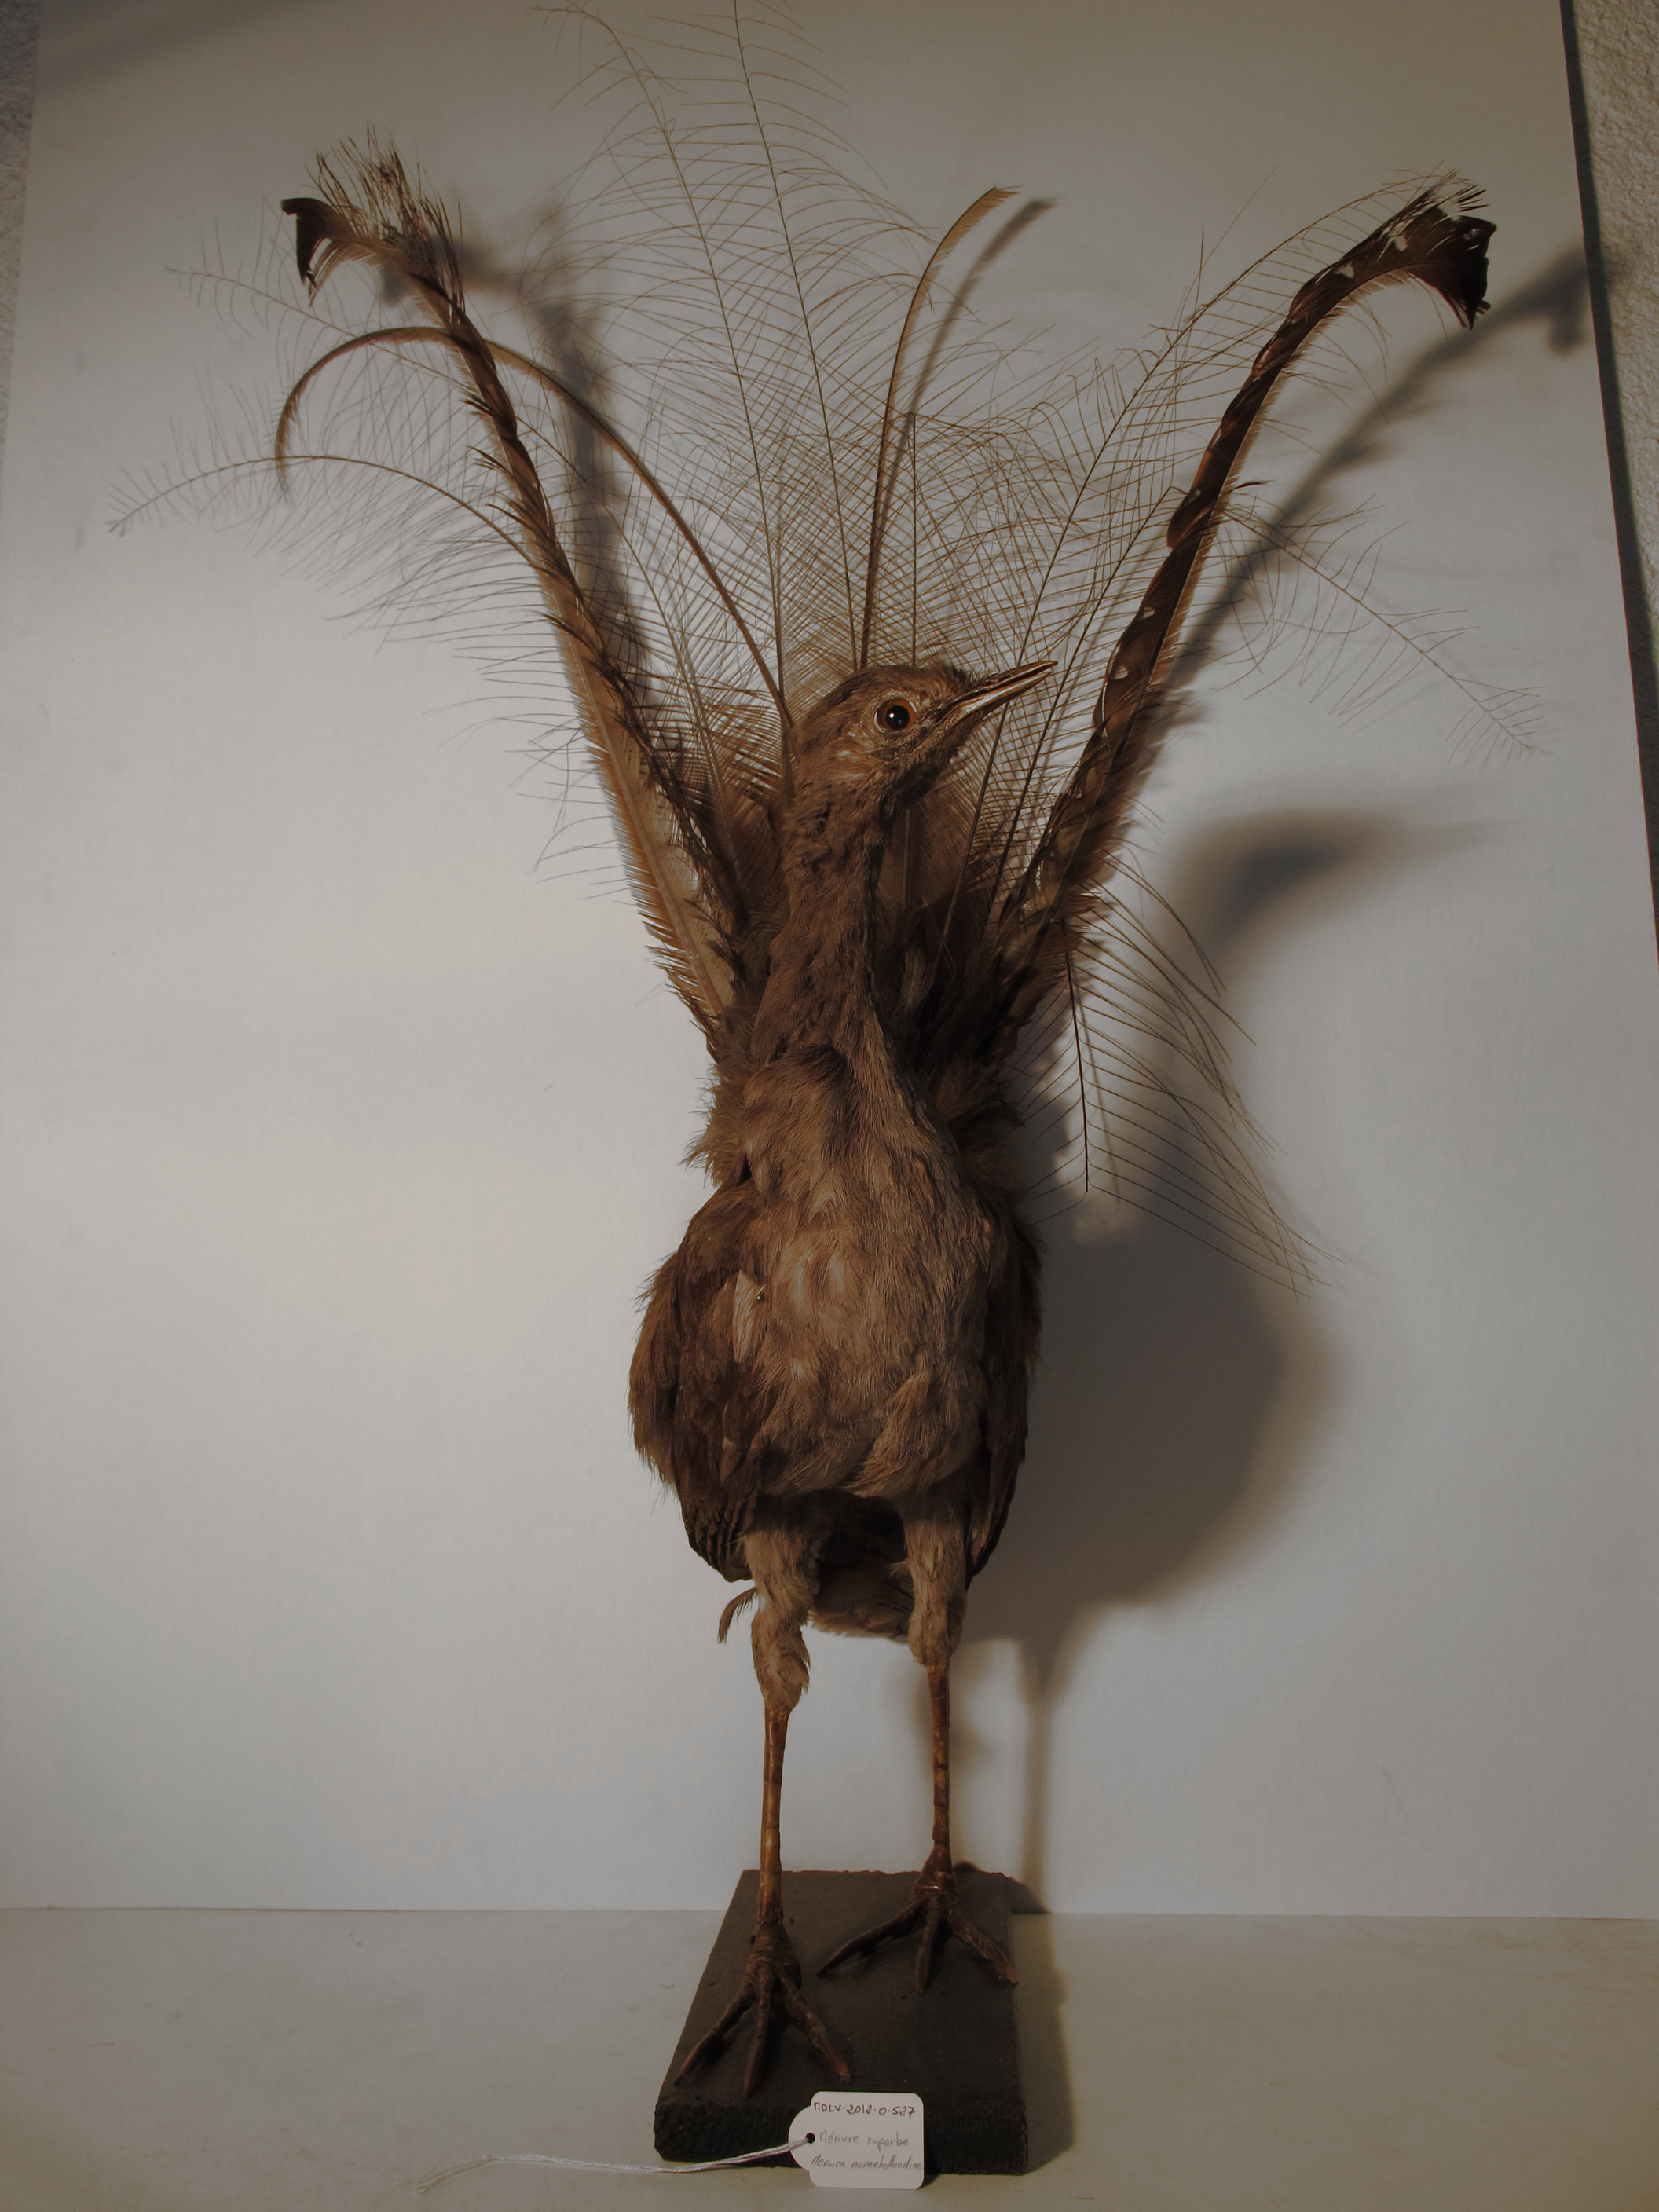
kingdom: Animalia
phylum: Chordata
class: Aves
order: Passeriformes
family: Menuridae
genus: Menura
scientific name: Menura novaehollandiae
